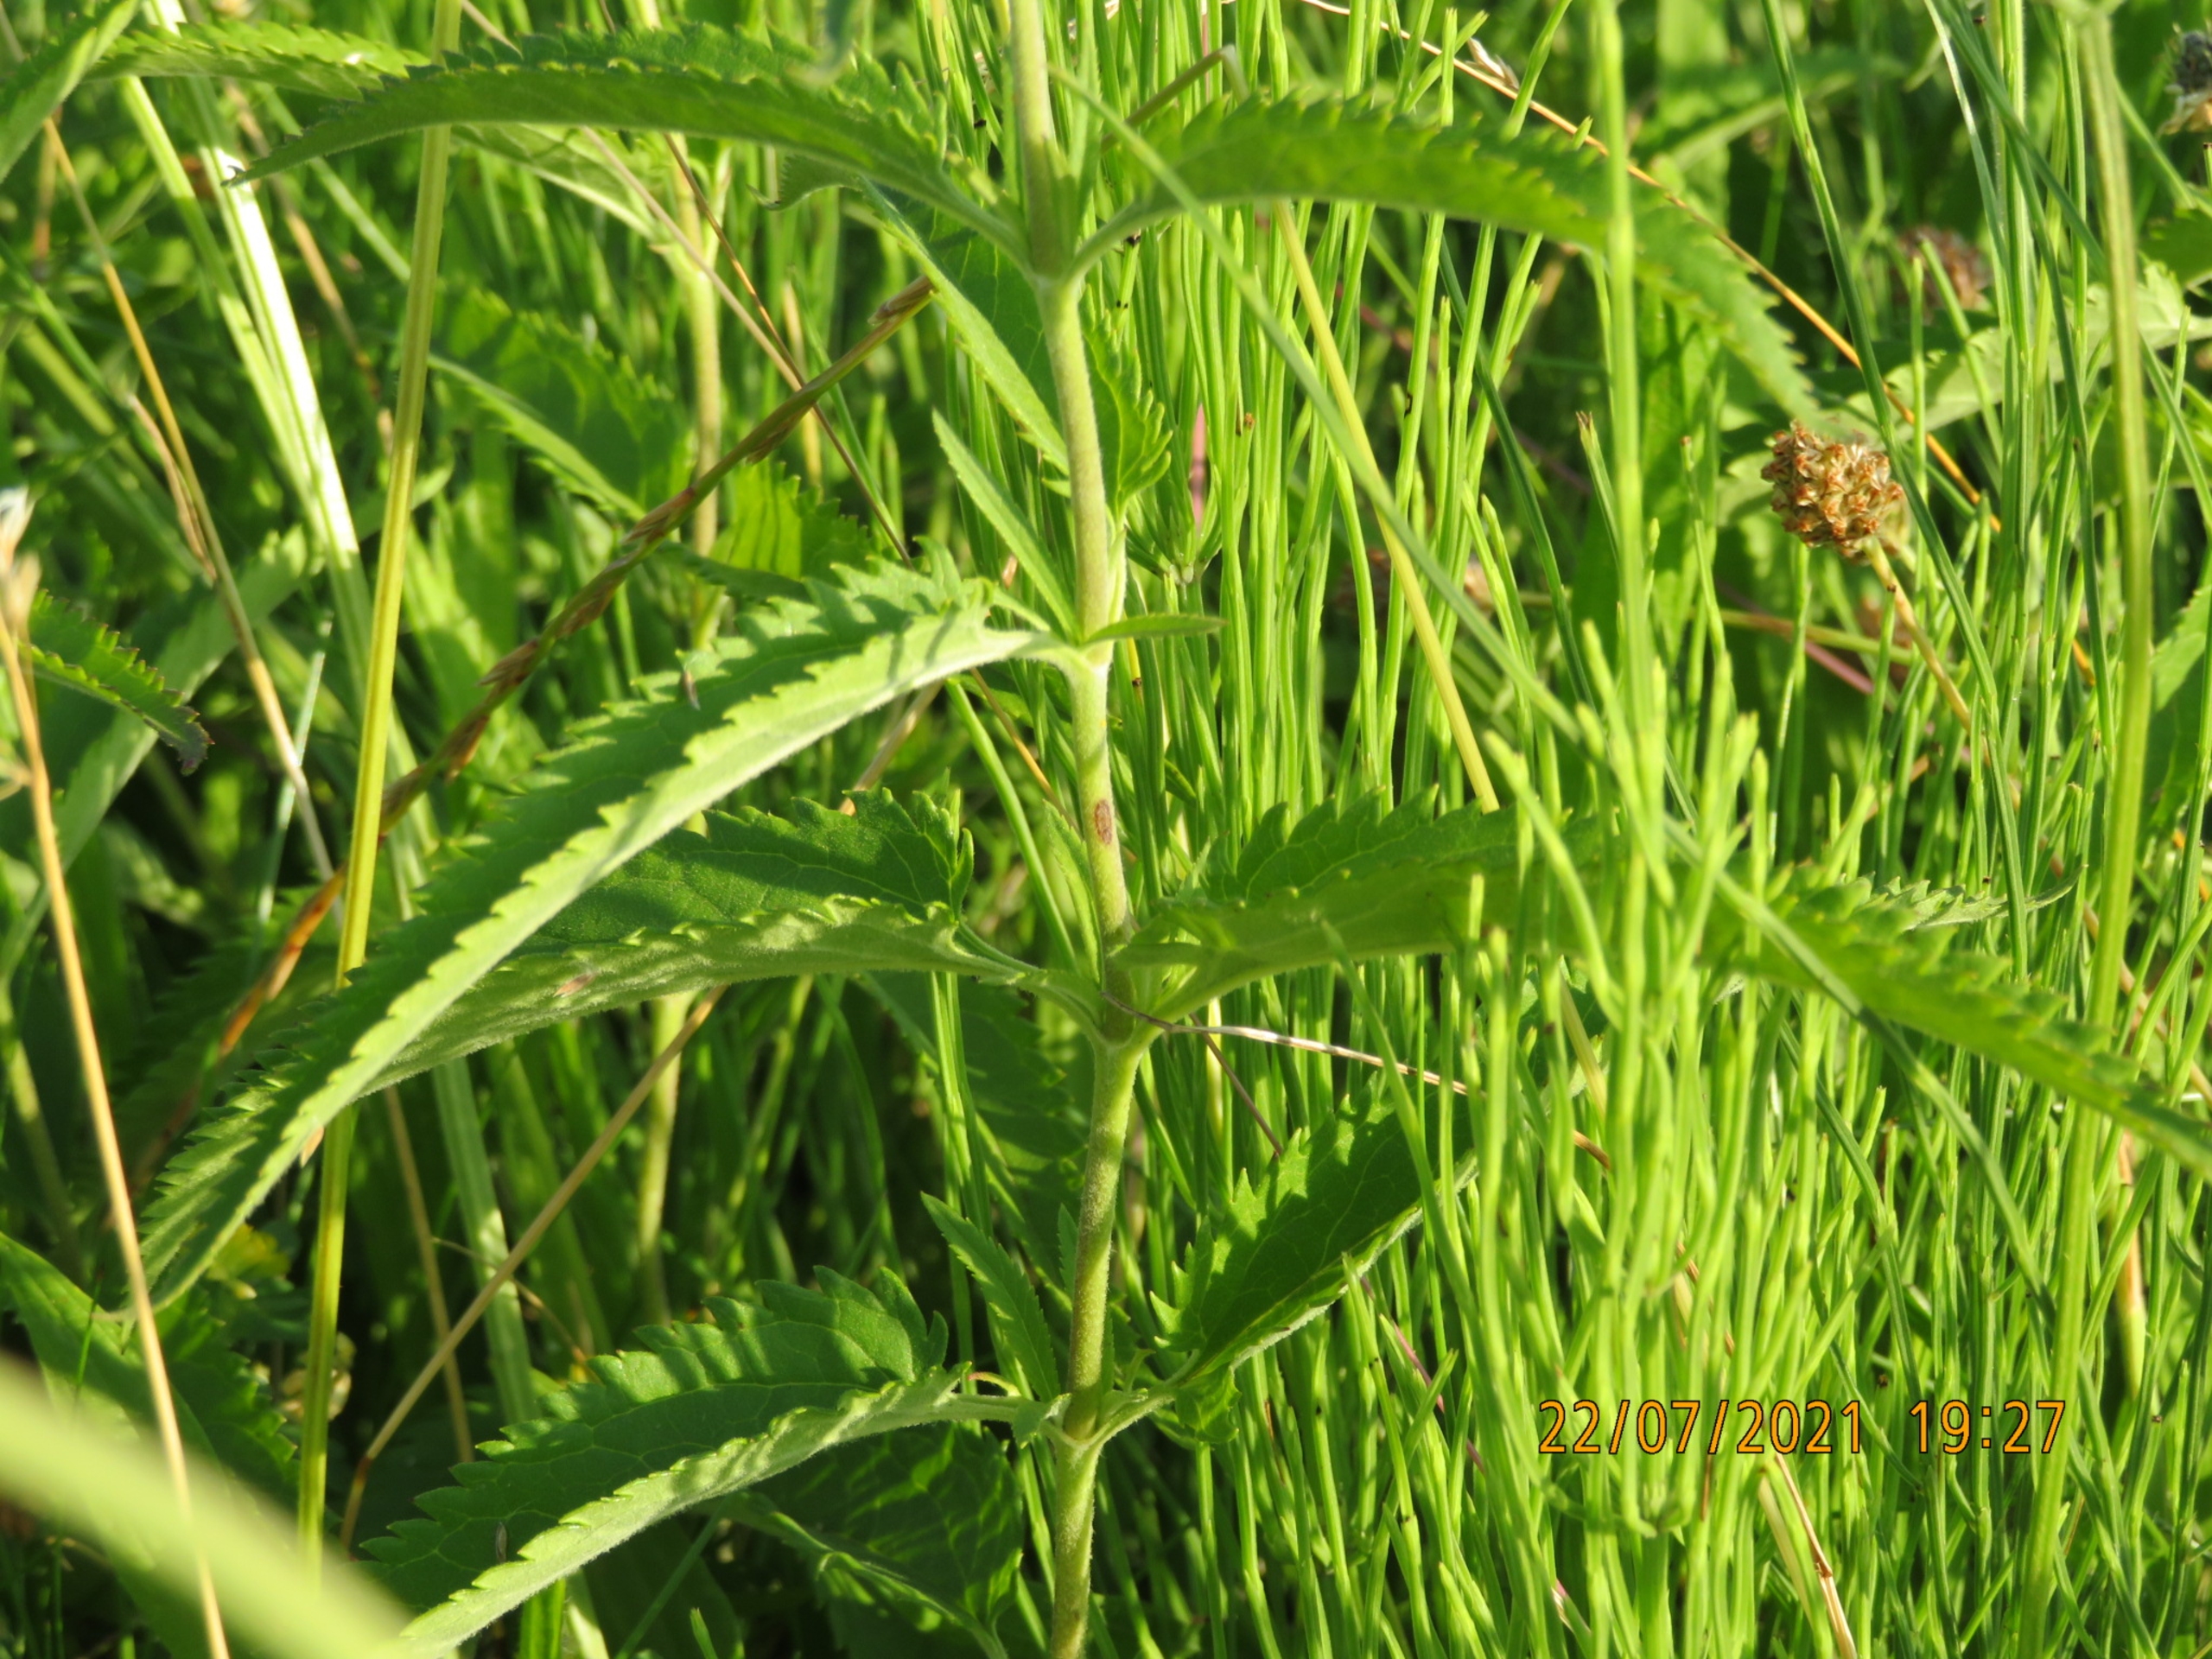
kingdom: Plantae
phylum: Tracheophyta
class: Magnoliopsida
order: Lamiales
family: Plantaginaceae
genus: Veronica
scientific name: Veronica longifolia
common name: Langbladet ærenpris
